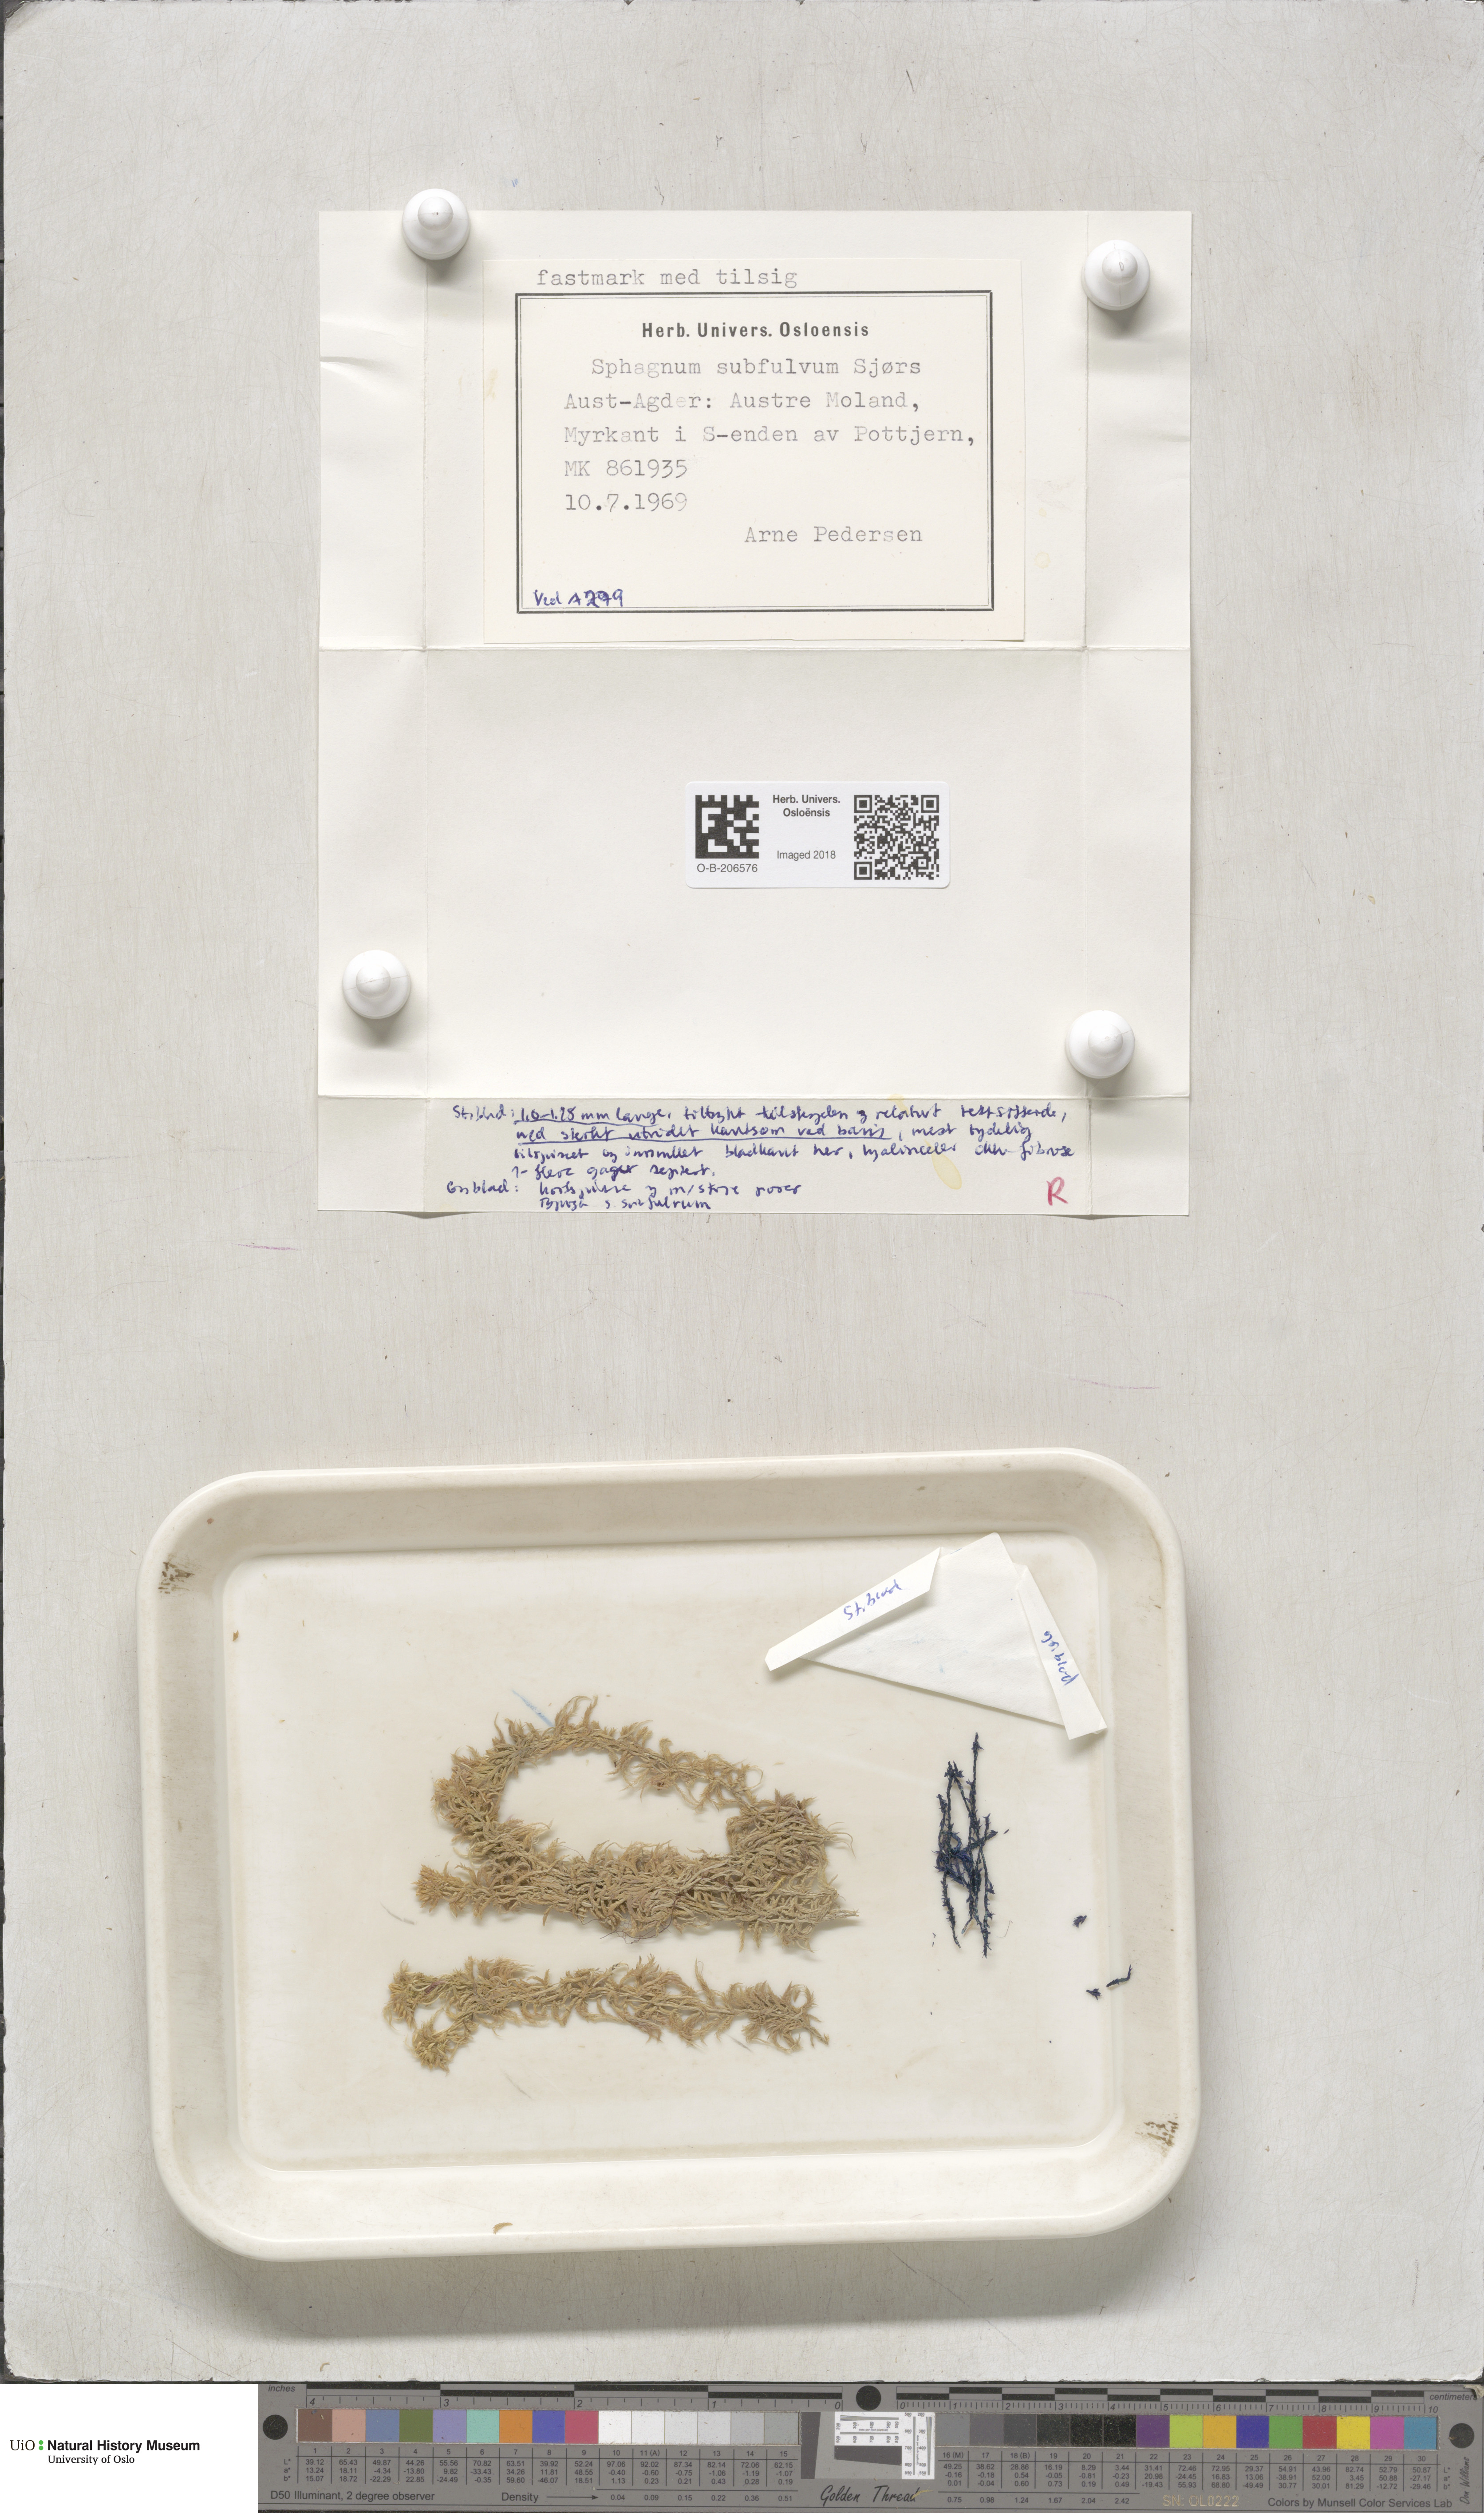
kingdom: Plantae
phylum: Bryophyta
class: Sphagnopsida
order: Sphagnales
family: Sphagnaceae
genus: Sphagnum
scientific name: Sphagnum subfulvum
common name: Fulvous peat moss
